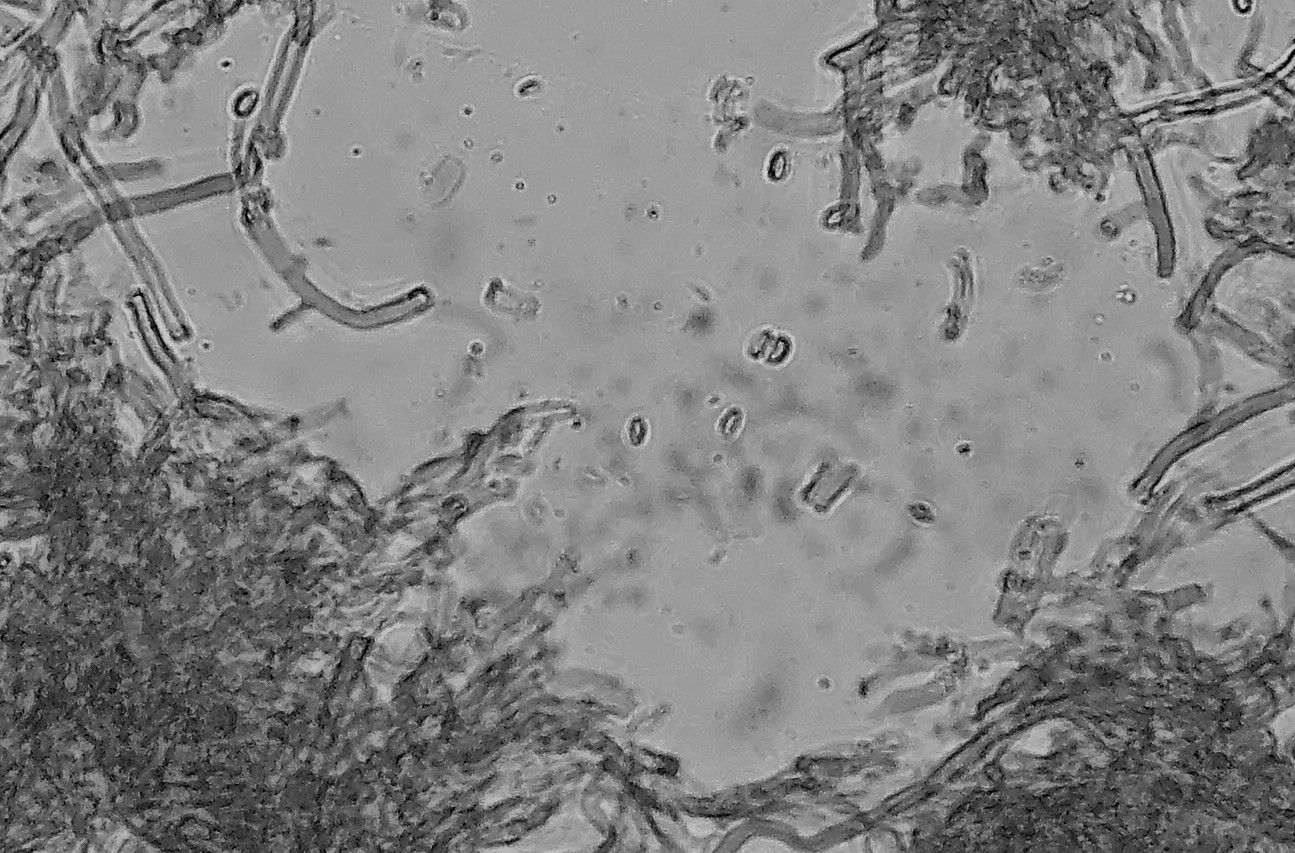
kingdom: Fungi
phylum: Basidiomycota
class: Agaricomycetes
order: Hymenochaetales
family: Schizoporaceae
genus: Xylodon
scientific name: Xylodon
